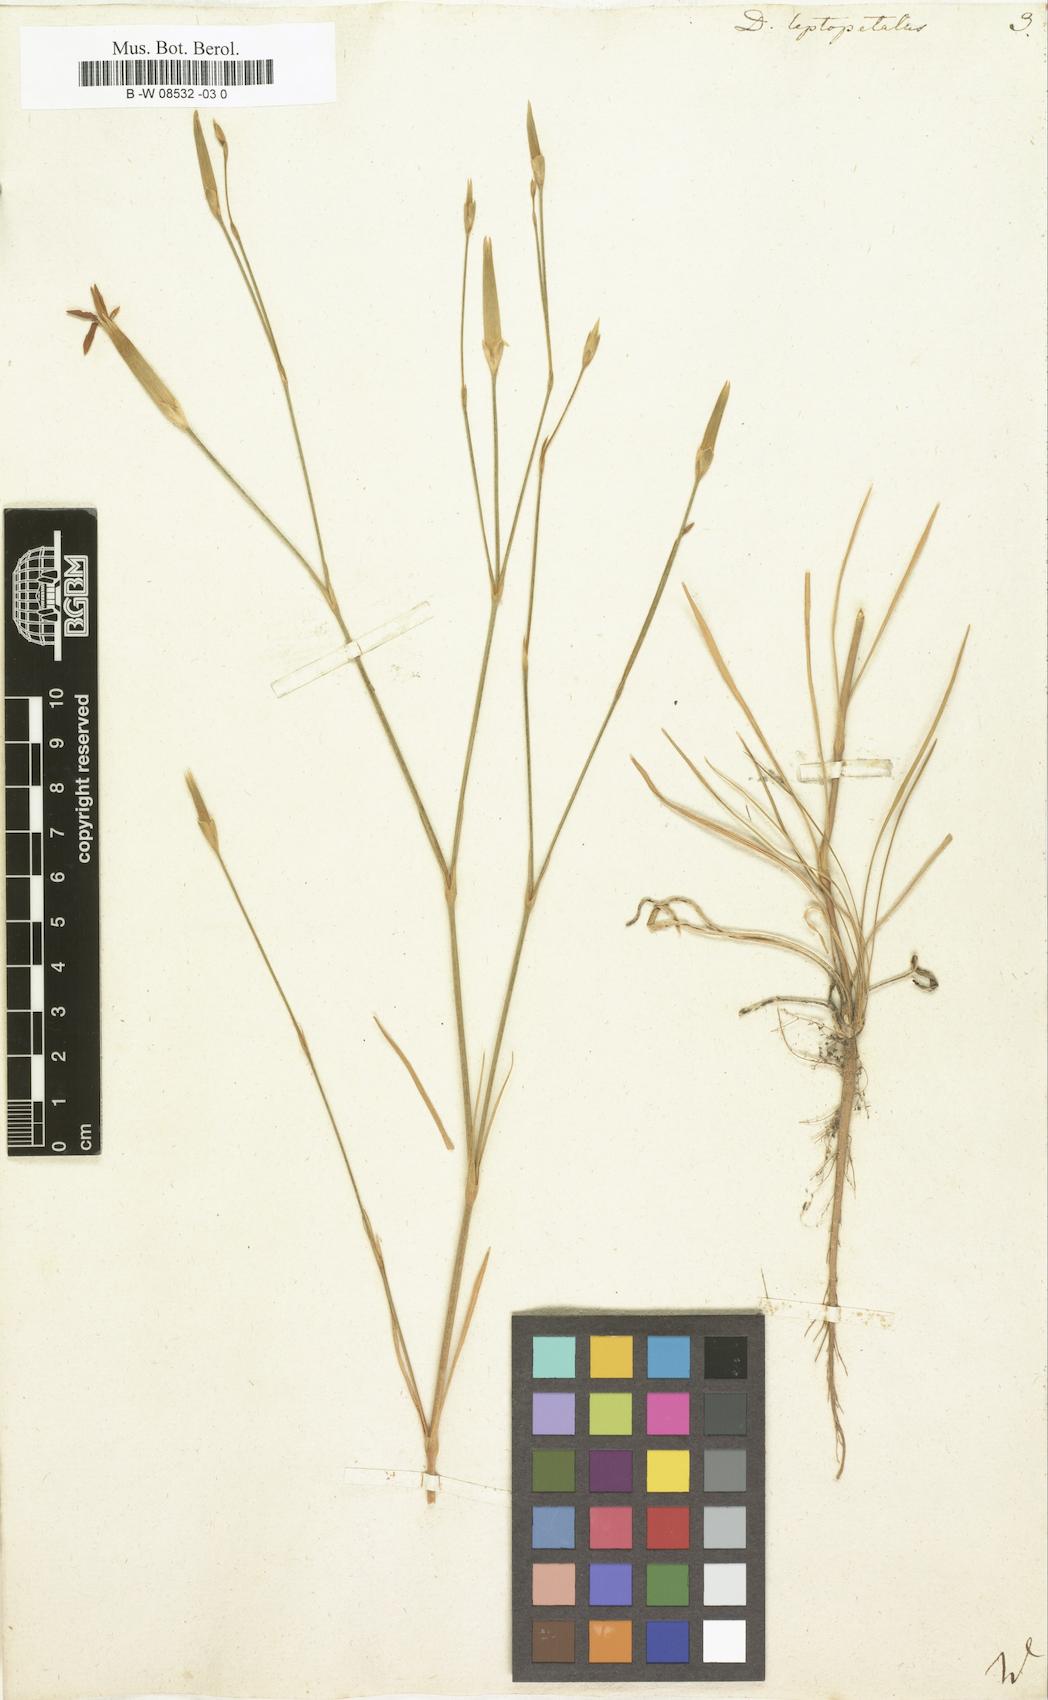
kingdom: Plantae
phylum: Tracheophyta
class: Magnoliopsida
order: Caryophyllales
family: Caryophyllaceae
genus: Dianthus
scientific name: Dianthus leptopetalus
